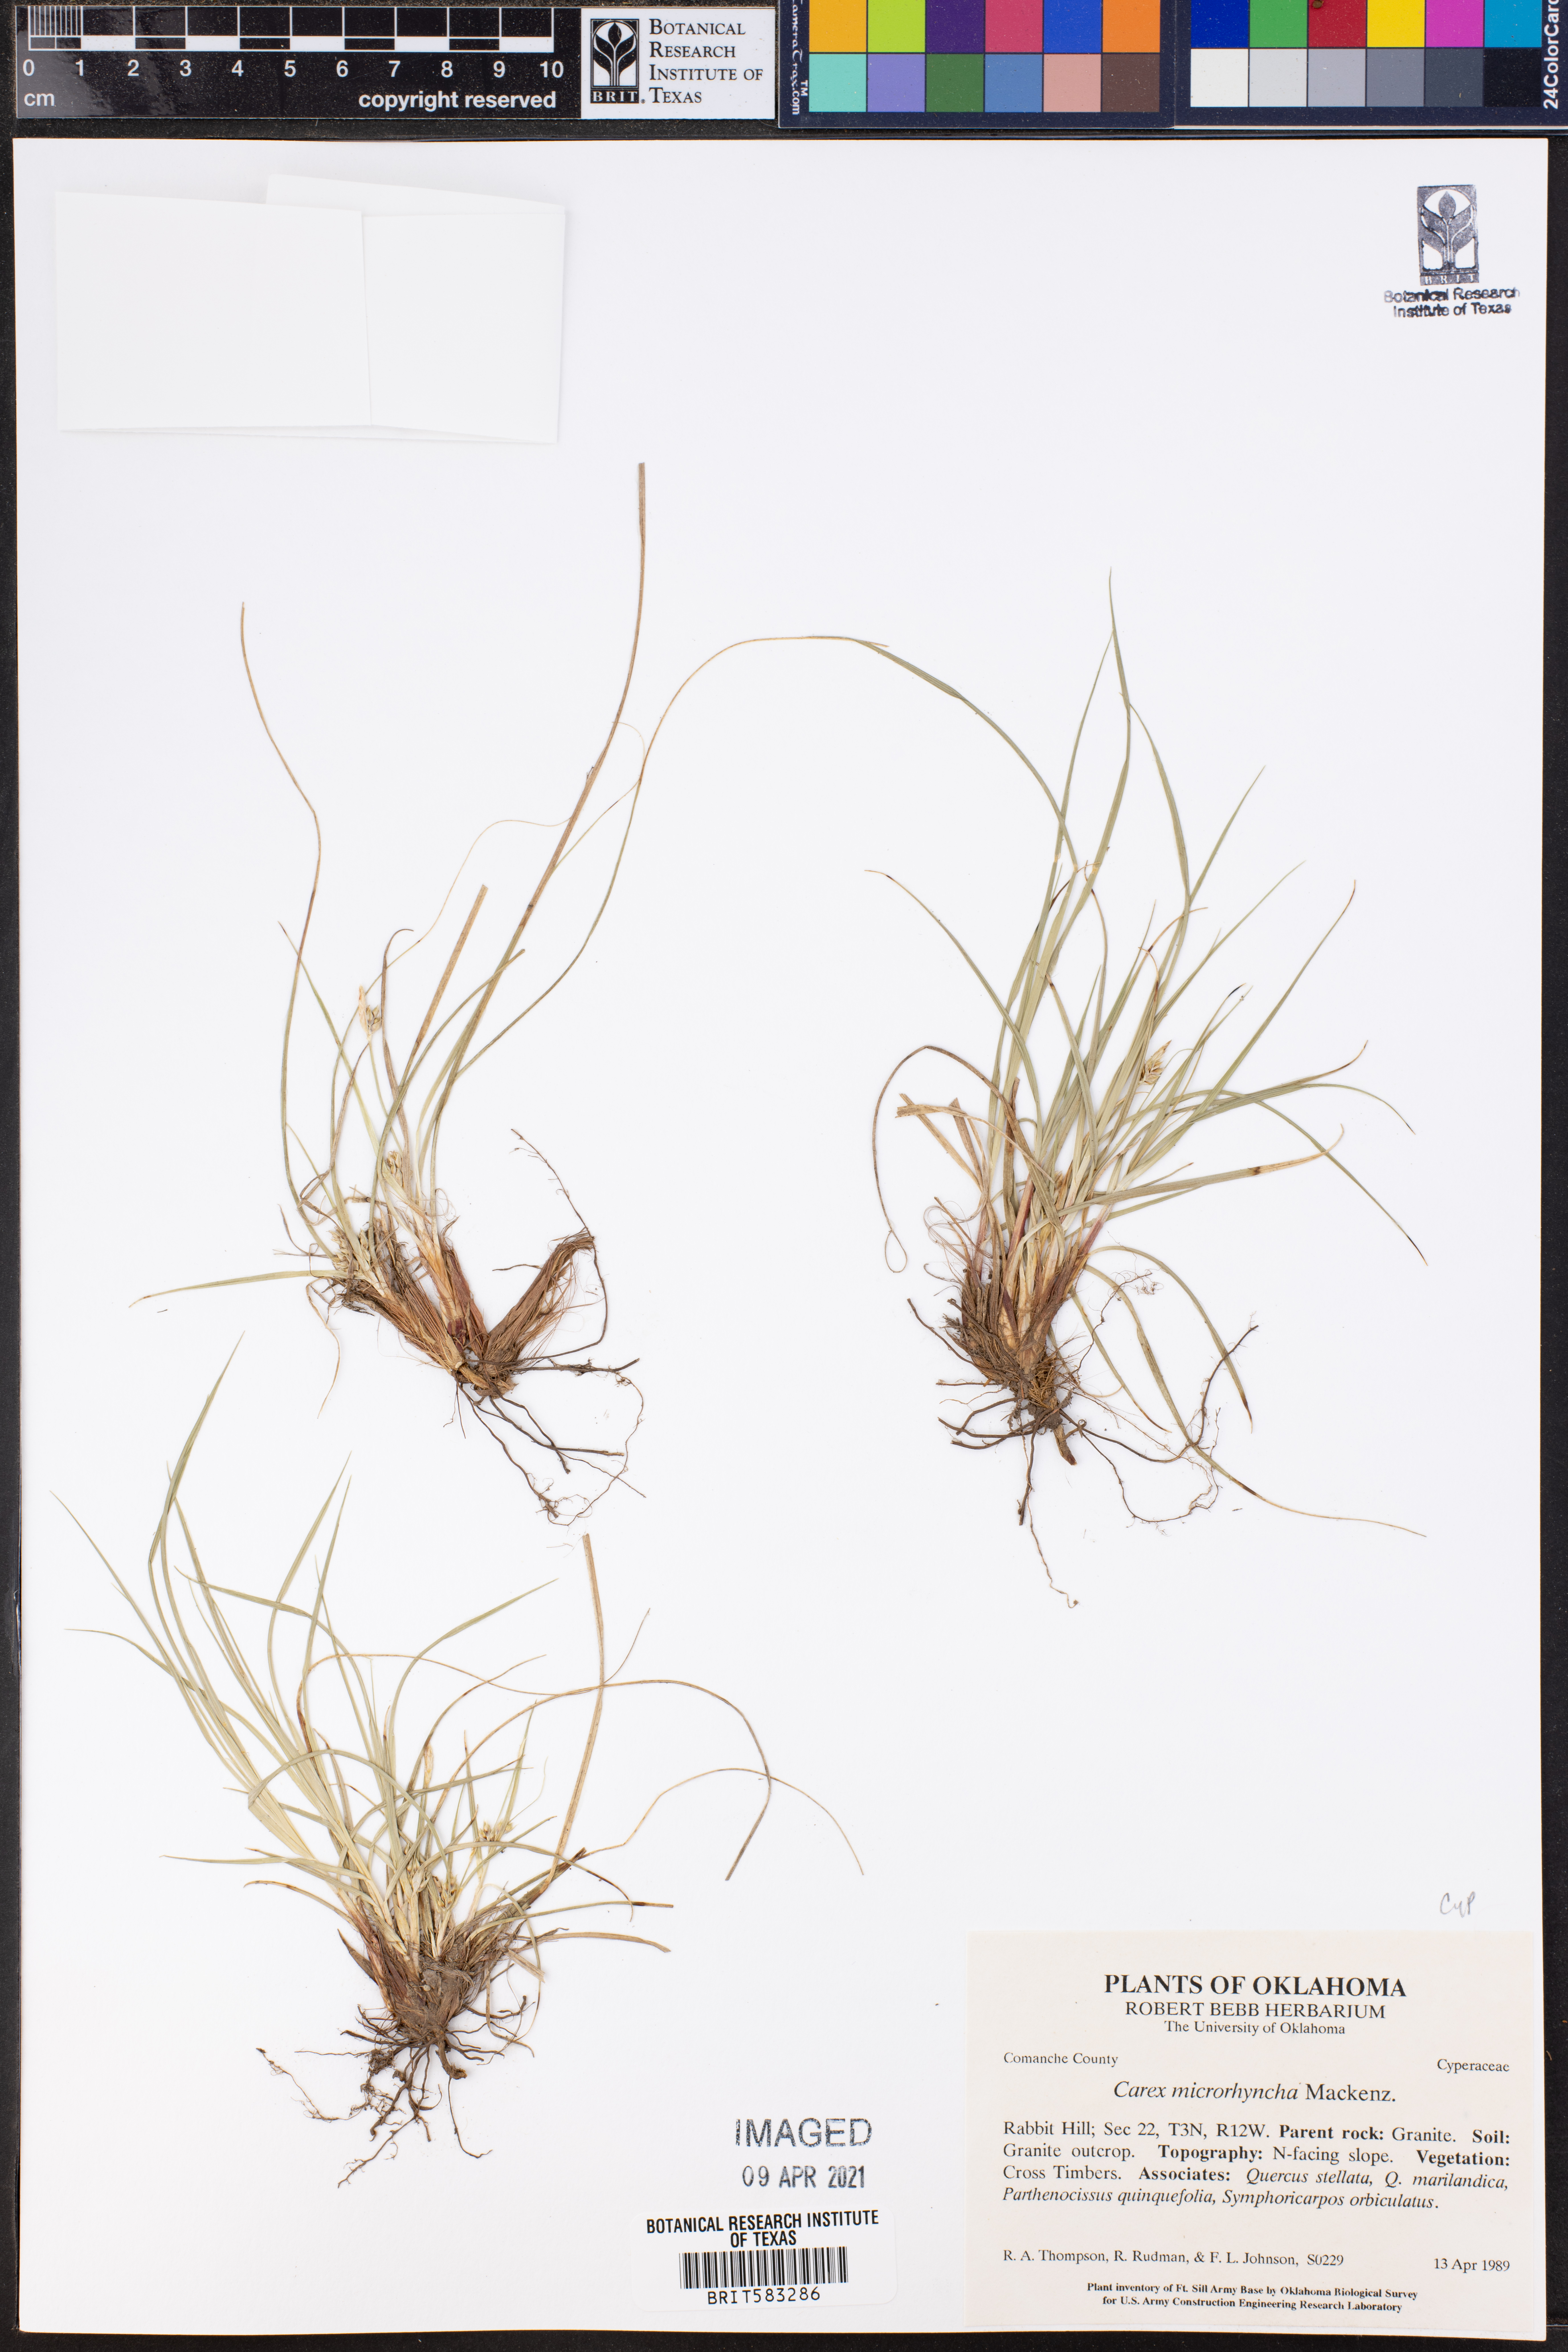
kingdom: Plantae
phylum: Tracheophyta
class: Liliopsida
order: Poales
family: Cyperaceae
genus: Carex
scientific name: Carex microrhyncha
